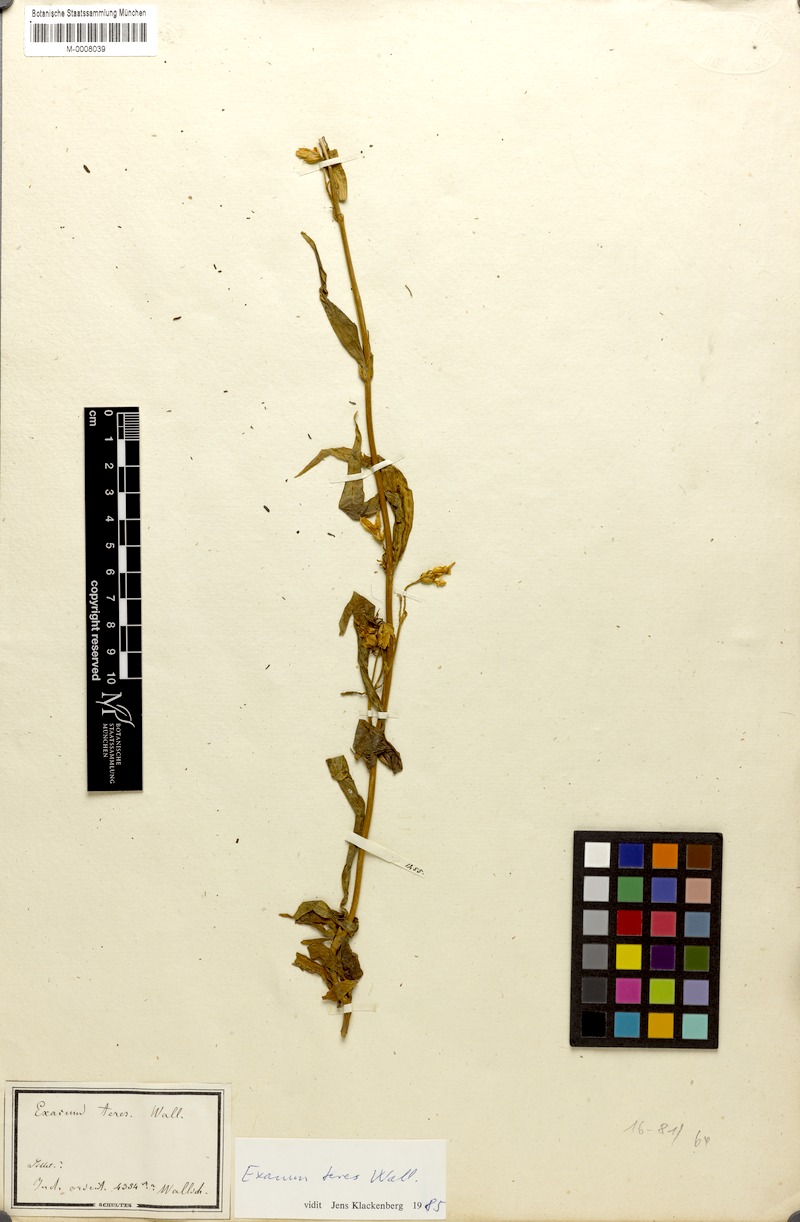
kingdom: Plantae
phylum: Tracheophyta
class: Magnoliopsida
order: Gentianales
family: Gentianaceae
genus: Exacum
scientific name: Exacum teres
